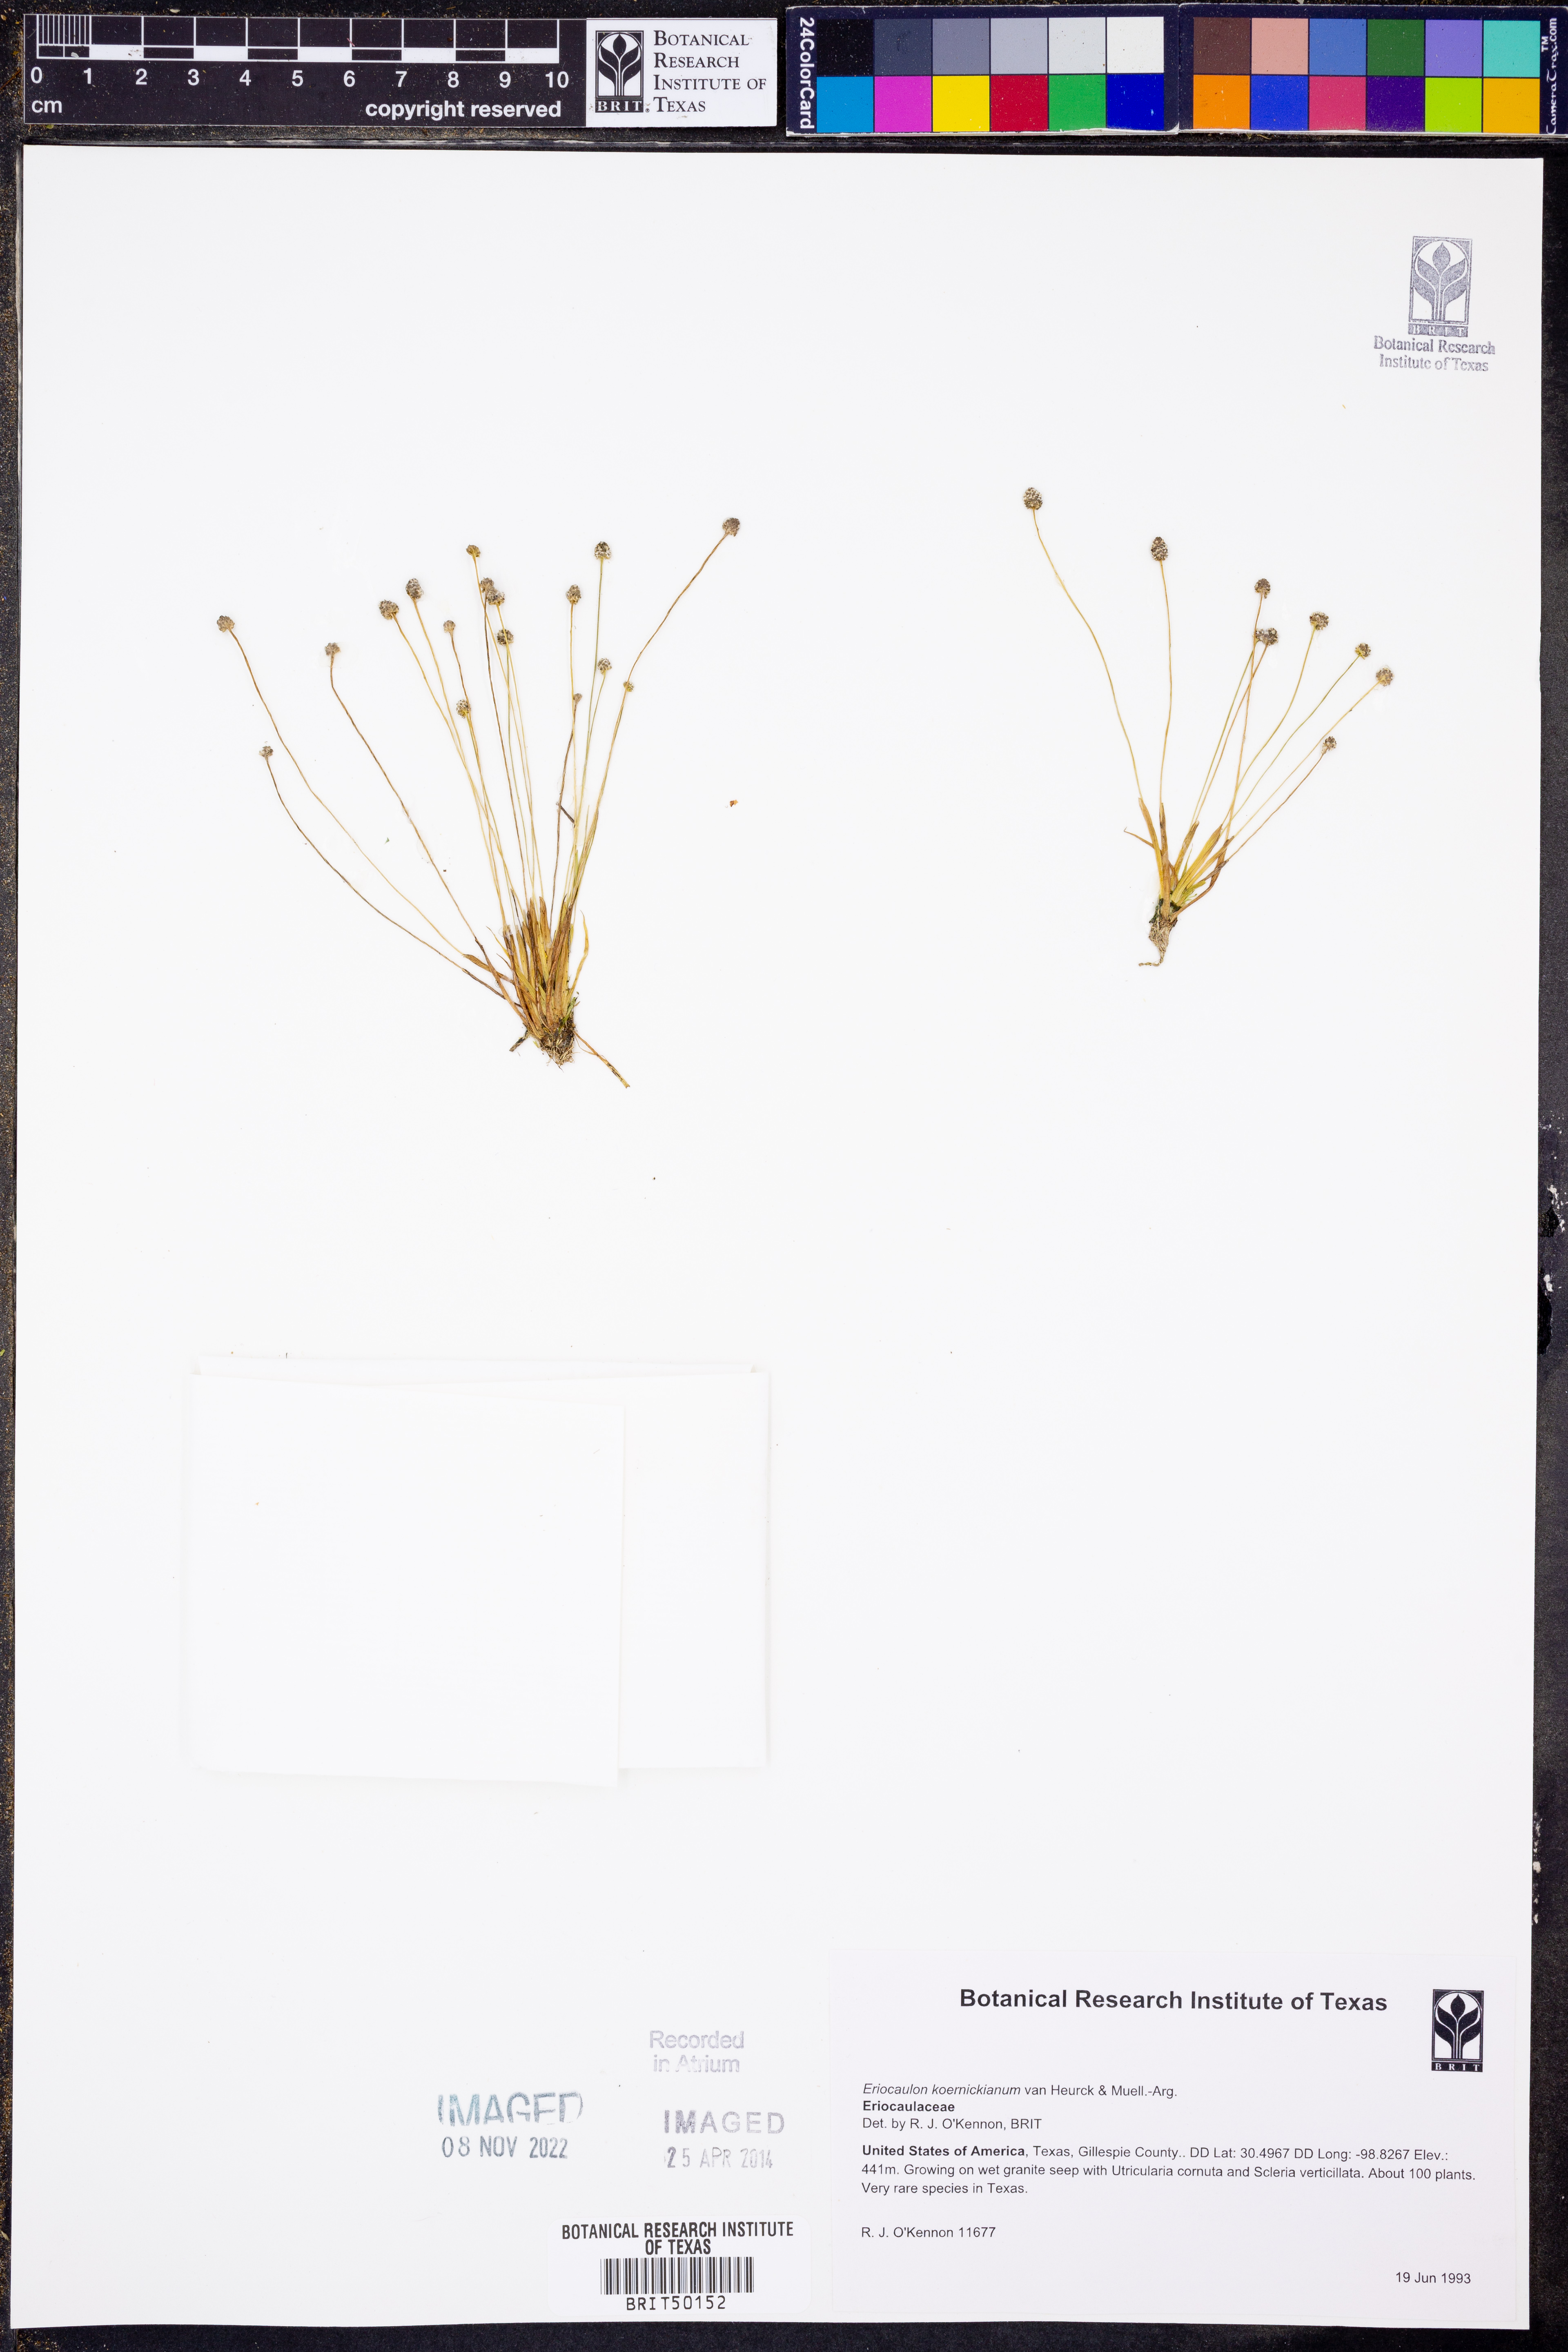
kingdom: Plantae
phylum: Tracheophyta
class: Liliopsida
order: Poales
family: Eriocaulaceae
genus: Eriocaulon
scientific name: Eriocaulon koernickianum
